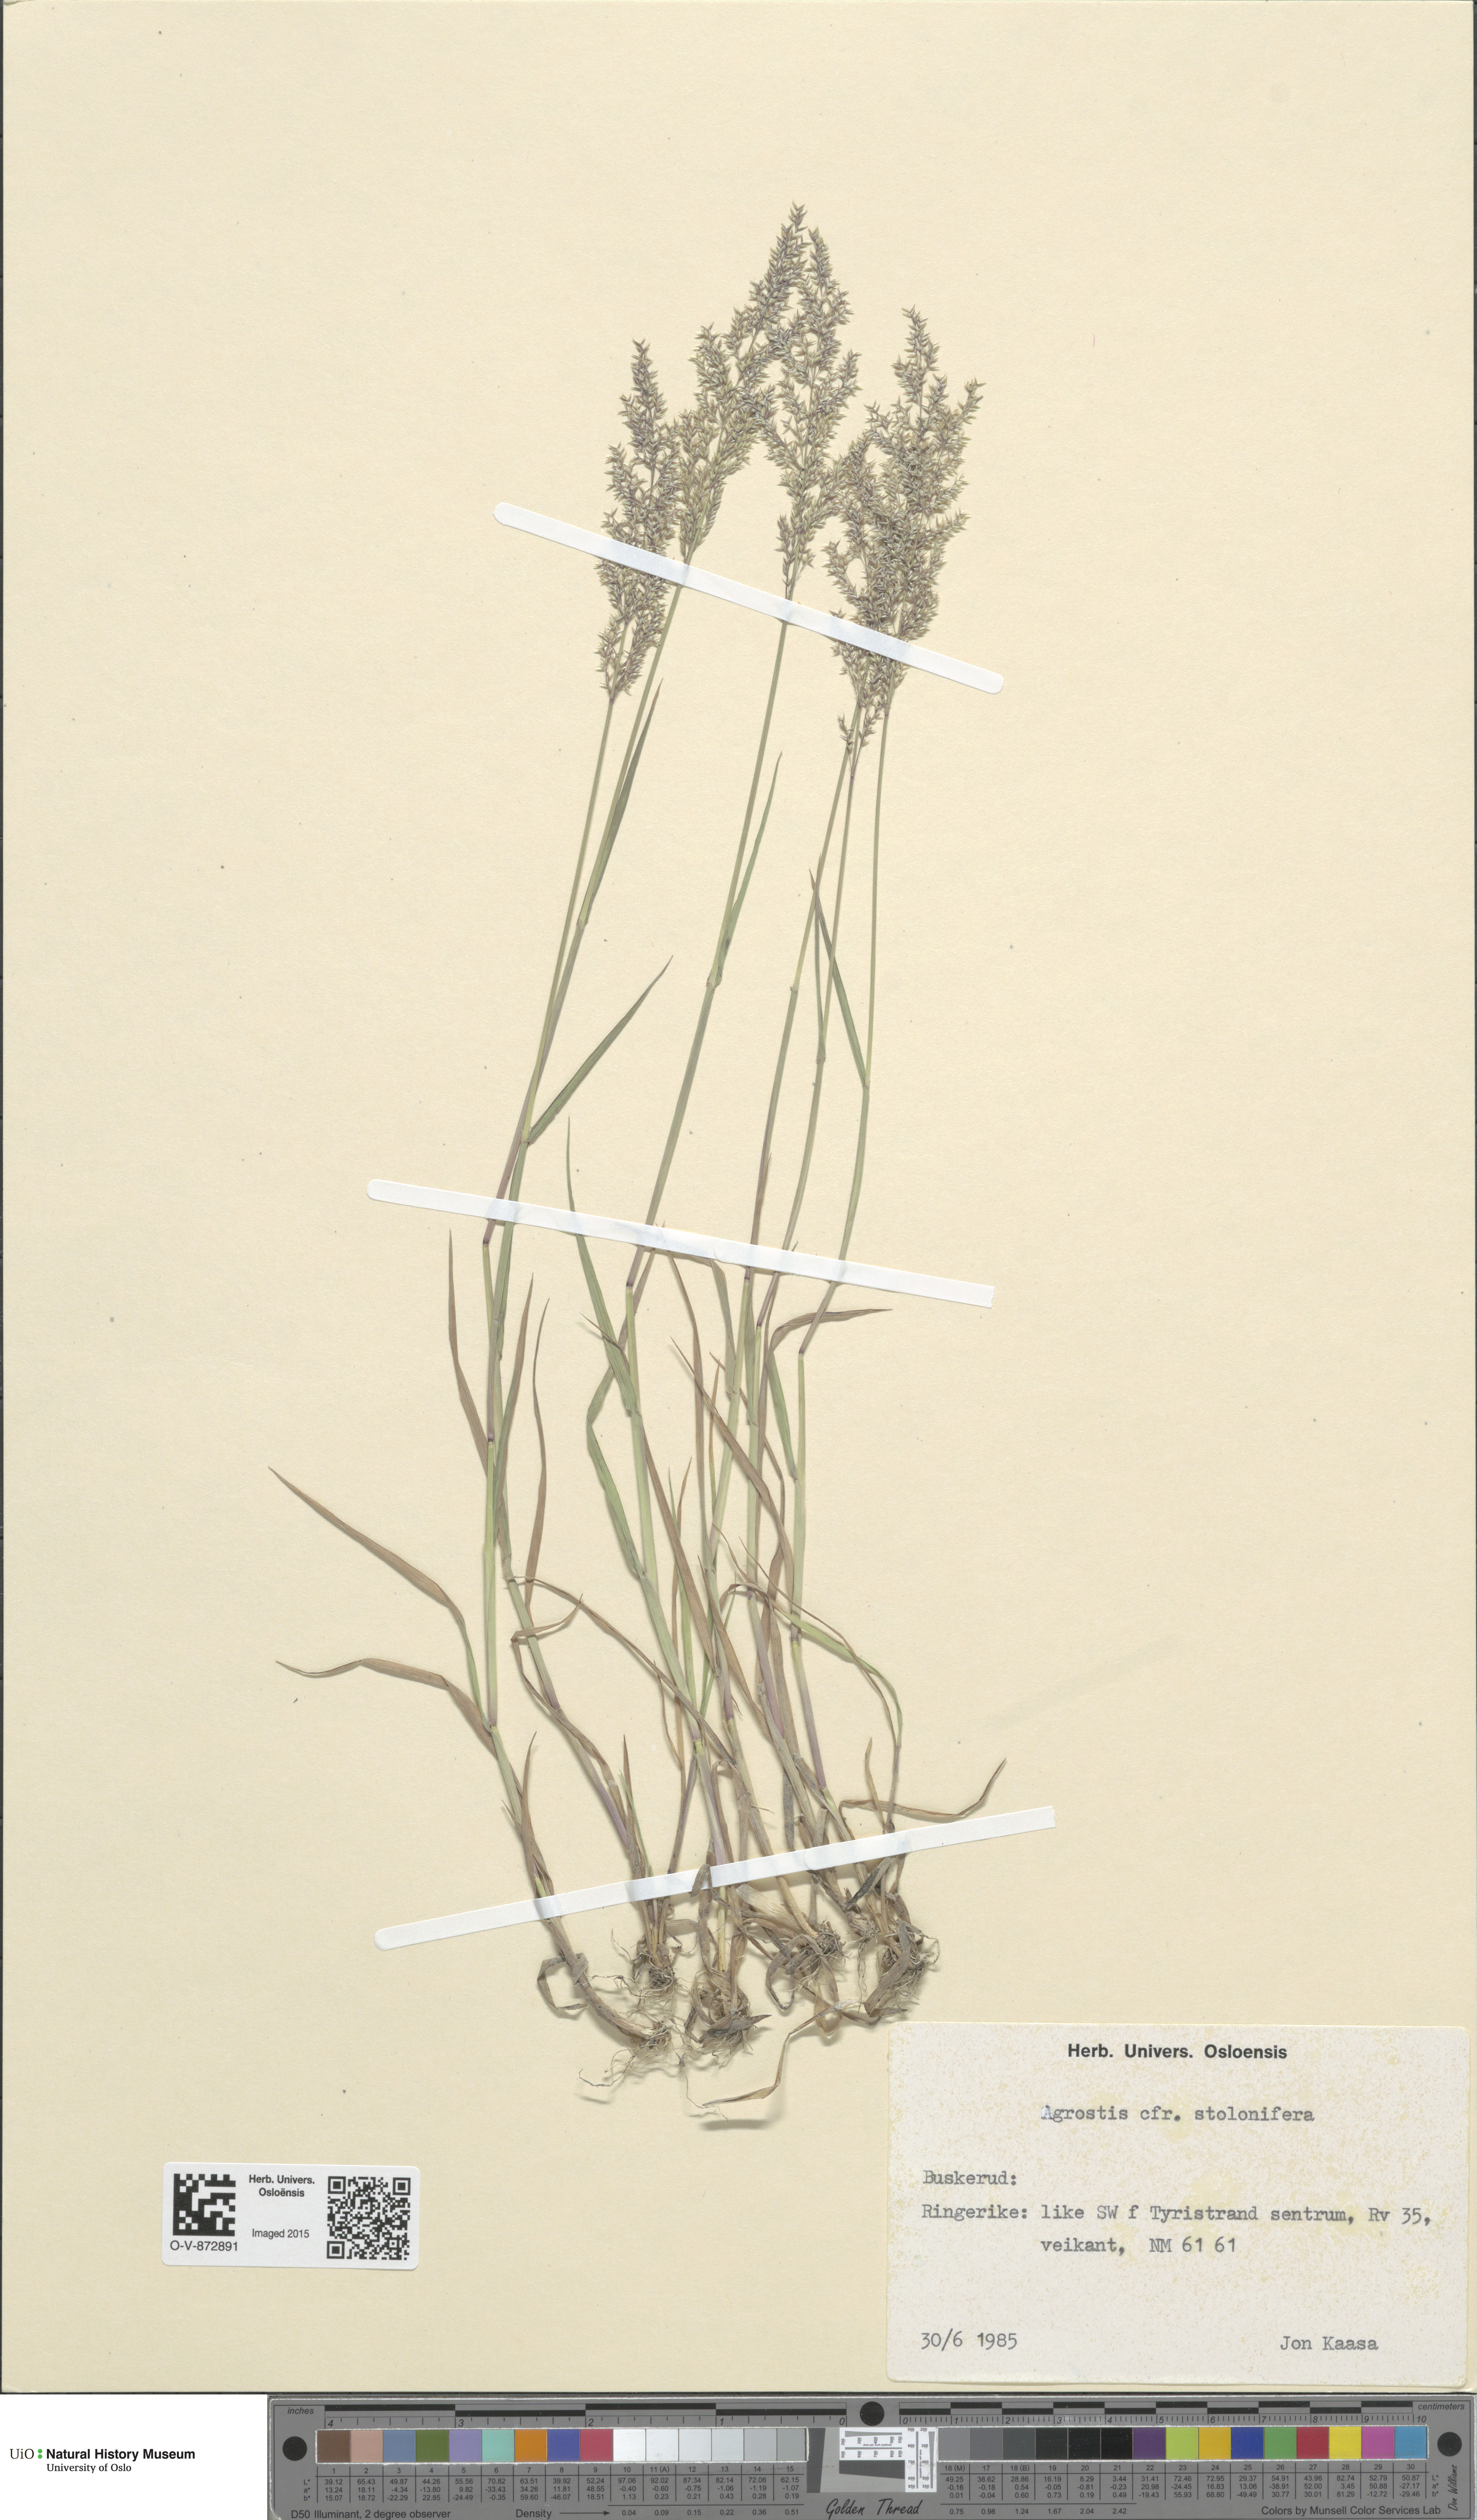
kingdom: Plantae
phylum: Tracheophyta
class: Liliopsida
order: Poales
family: Poaceae
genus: Agrostis
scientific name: Agrostis stolonifera
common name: Creeping bentgrass
